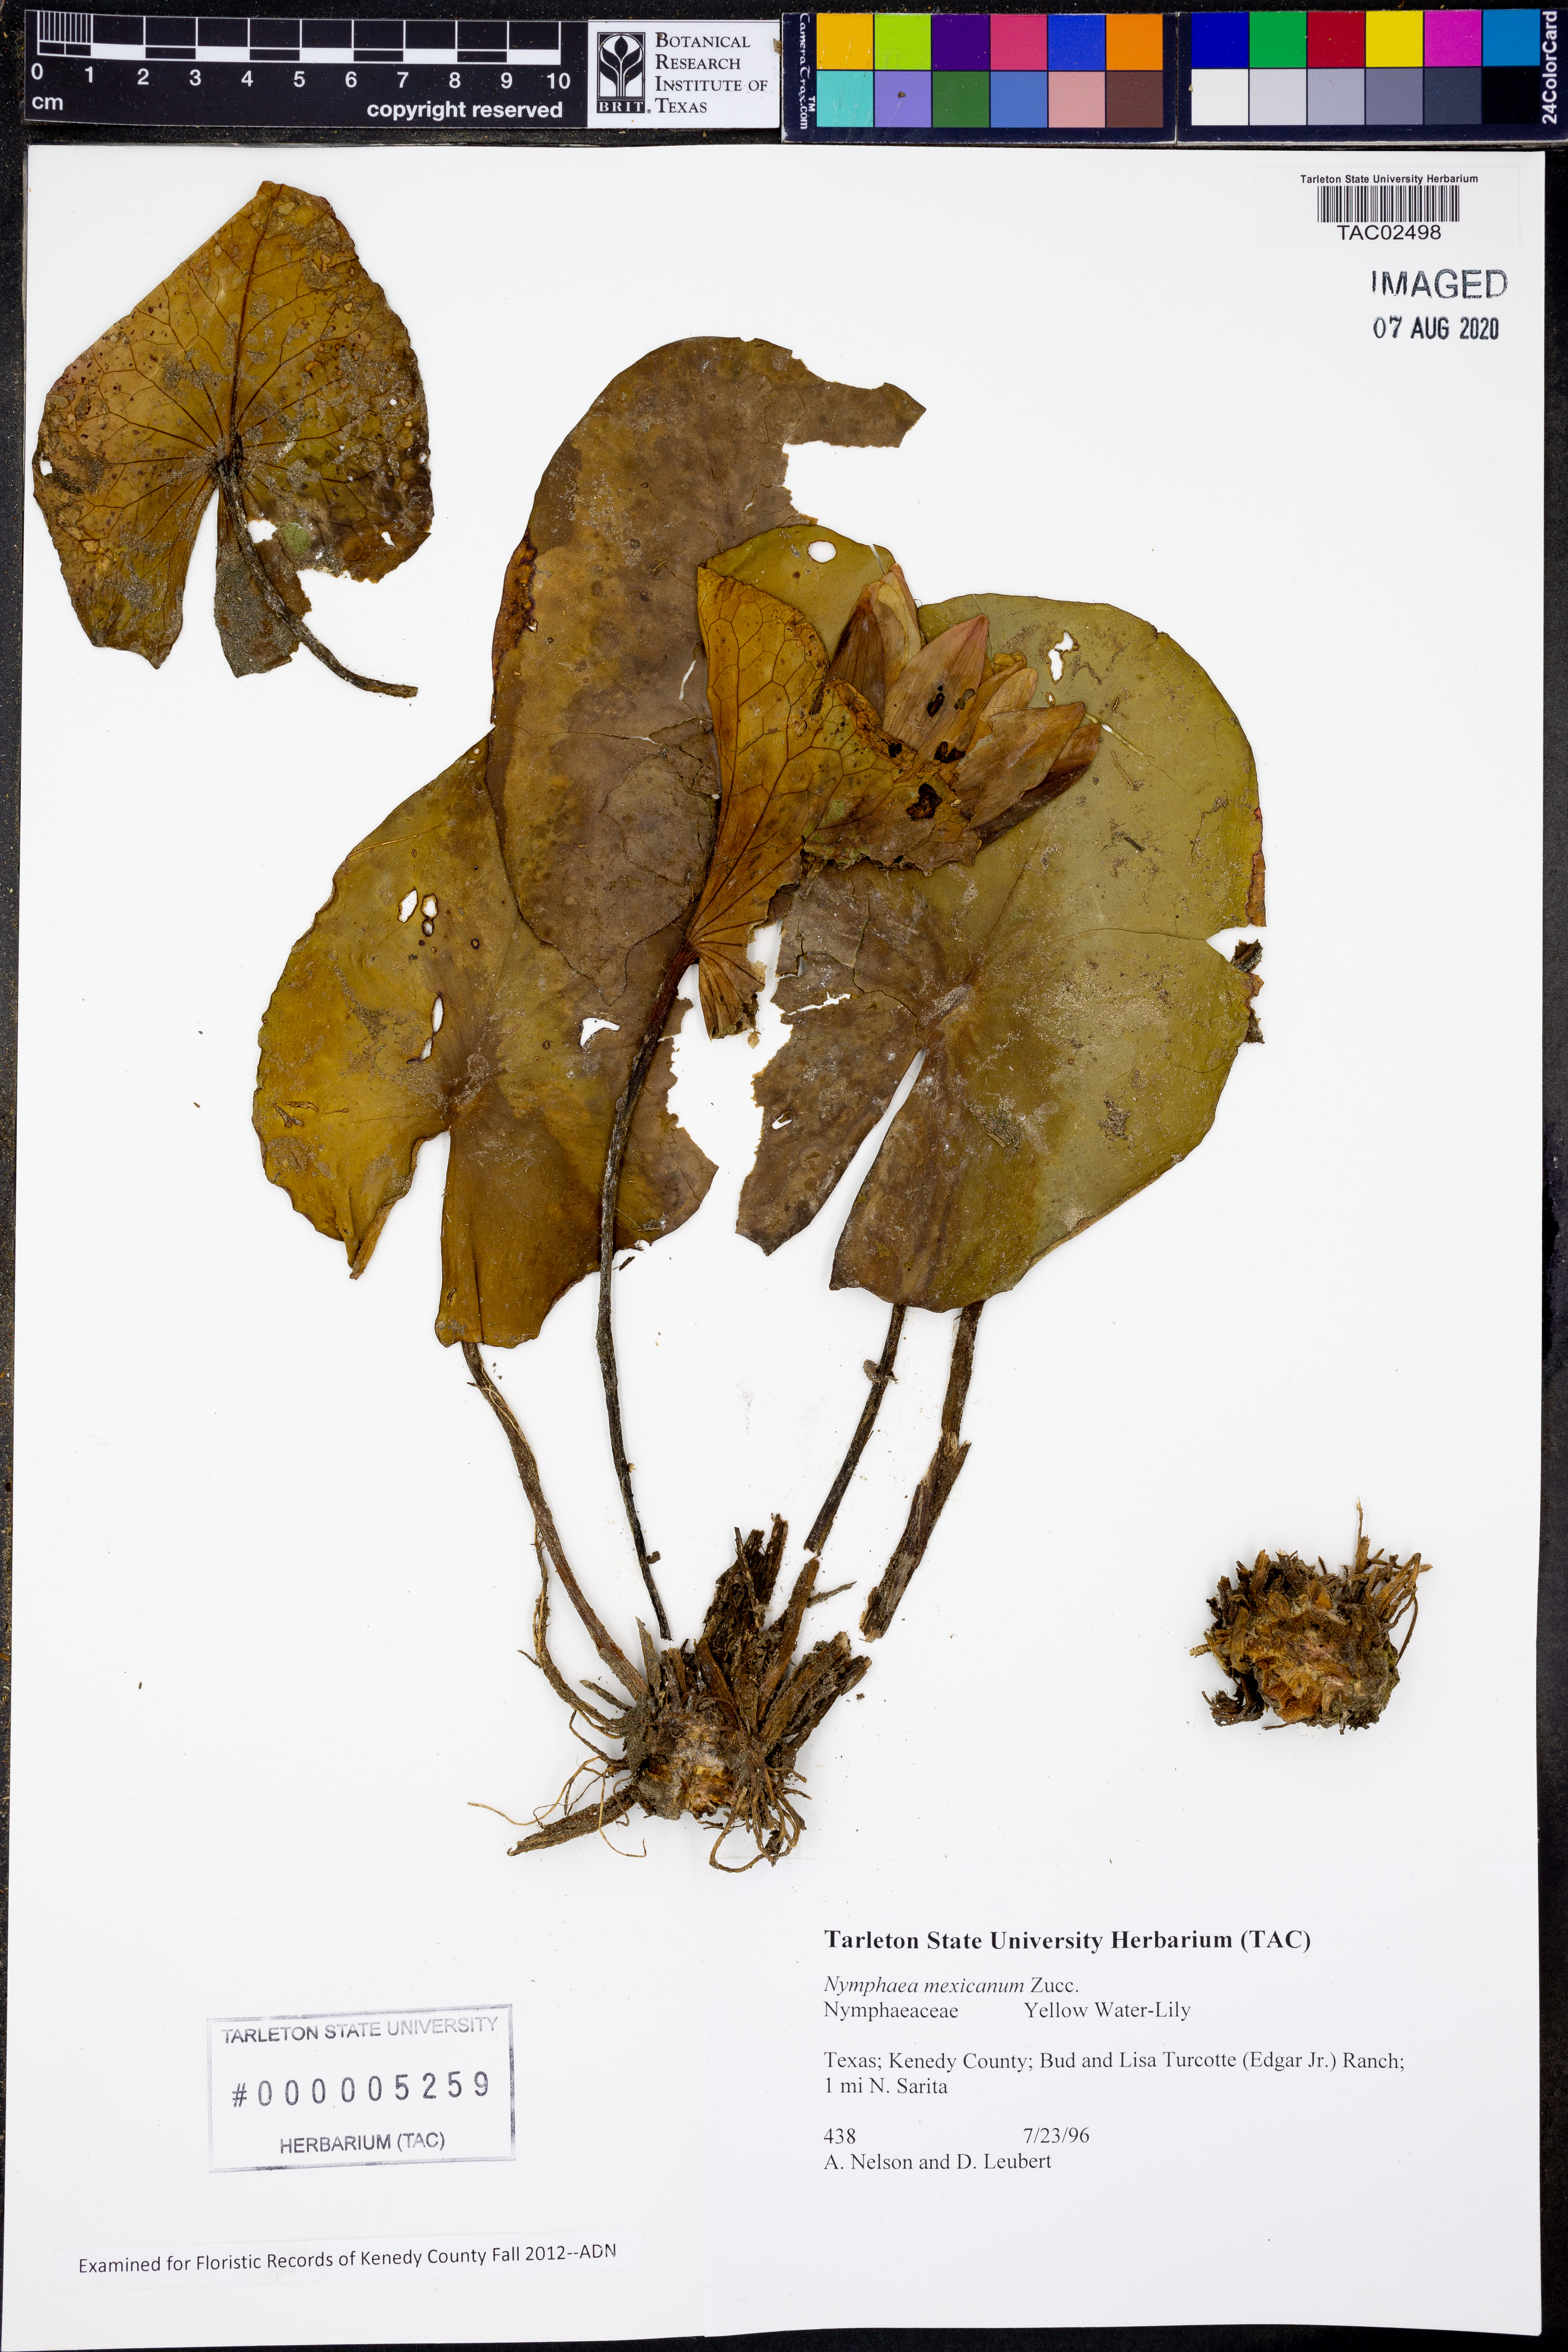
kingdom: Plantae
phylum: Tracheophyta
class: Magnoliopsida
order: Nymphaeales
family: Nymphaeaceae
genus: Nymphaea
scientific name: Nymphaea mexicana
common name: Banana water-lily
